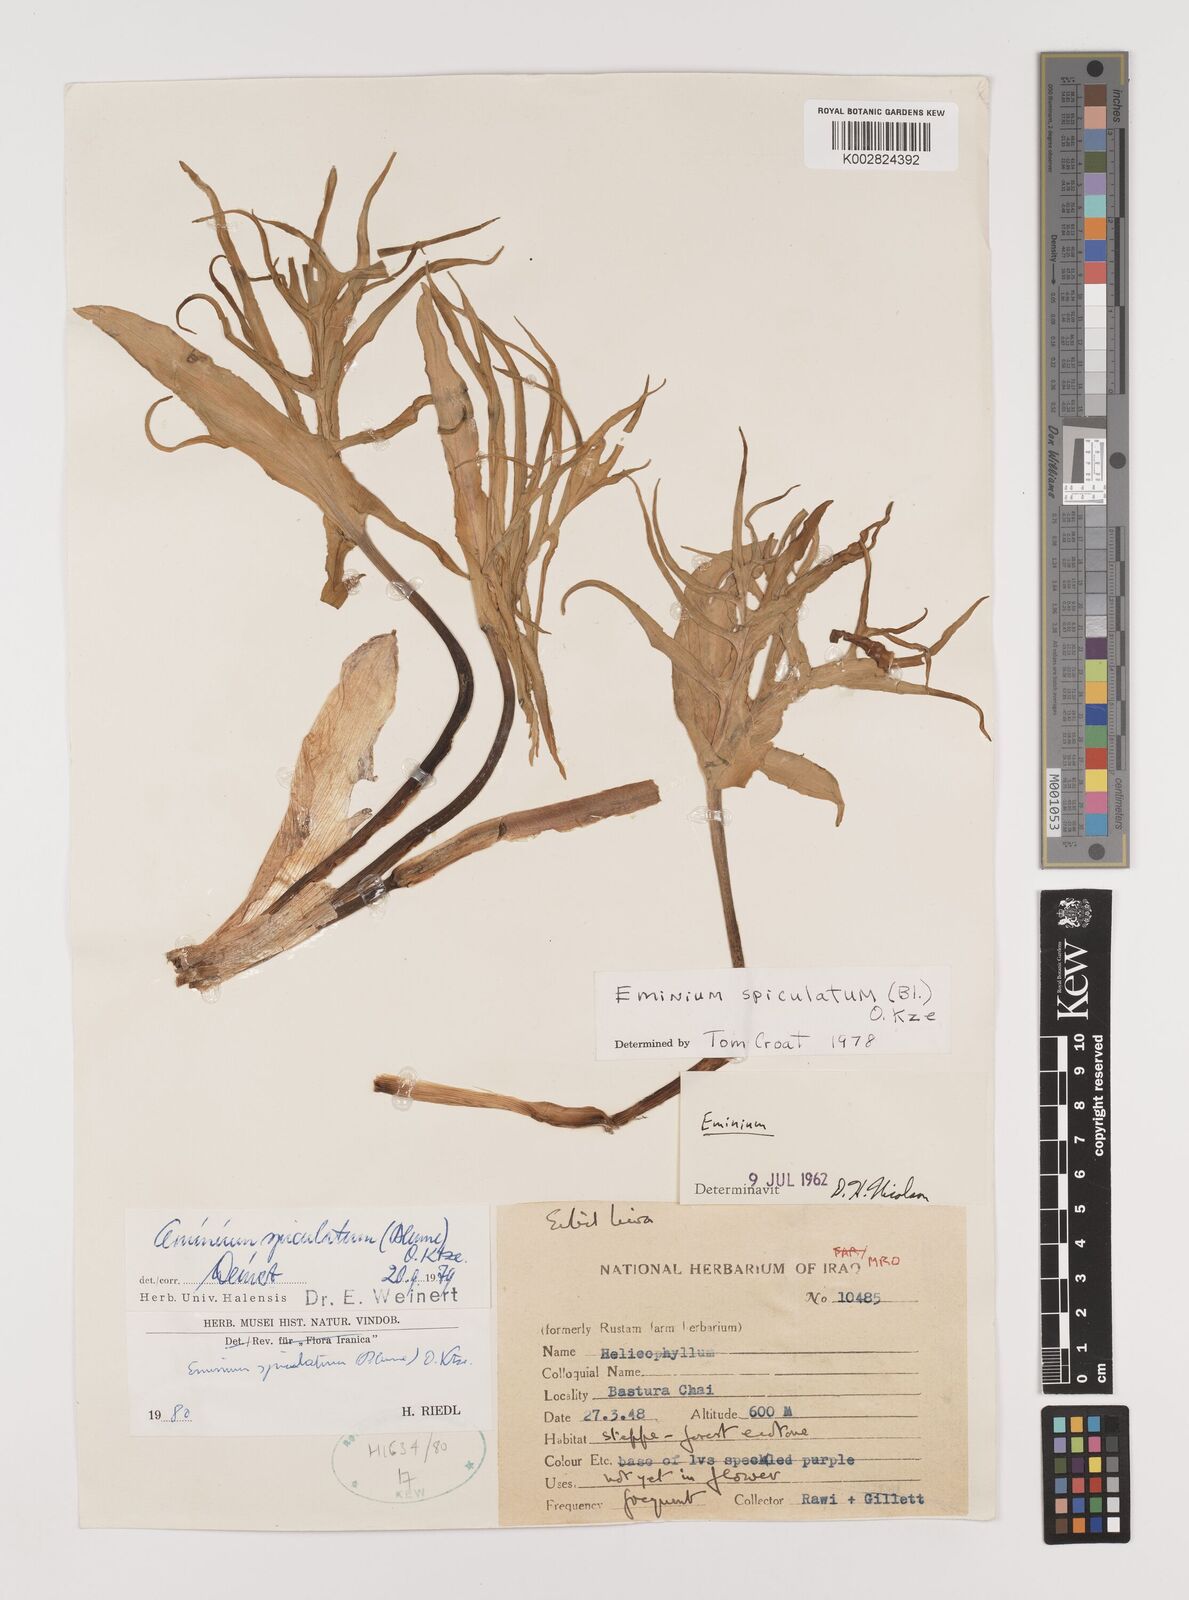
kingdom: Plantae
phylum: Tracheophyta
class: Liliopsida
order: Alismatales
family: Araceae
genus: Eminium
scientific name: Eminium spiculatum
